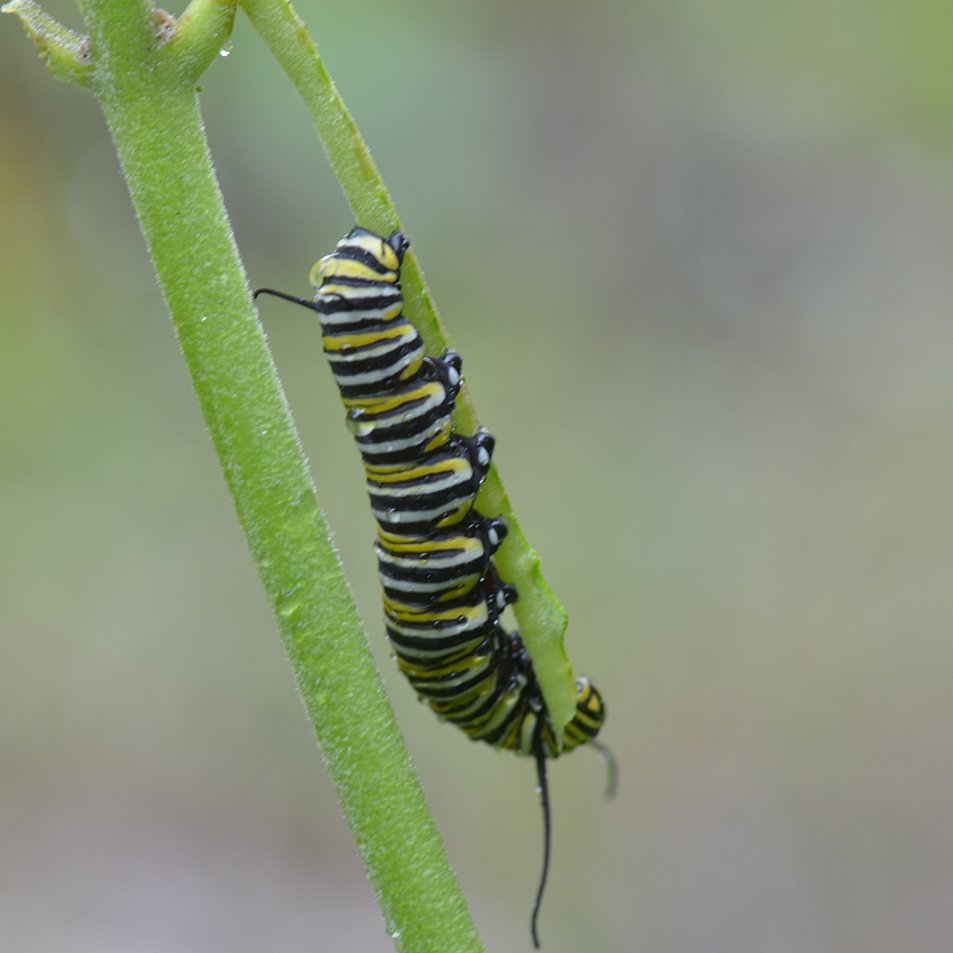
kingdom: Animalia
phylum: Arthropoda
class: Insecta
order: Lepidoptera
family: Nymphalidae
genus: Danaus
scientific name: Danaus plexippus
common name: Monarch
